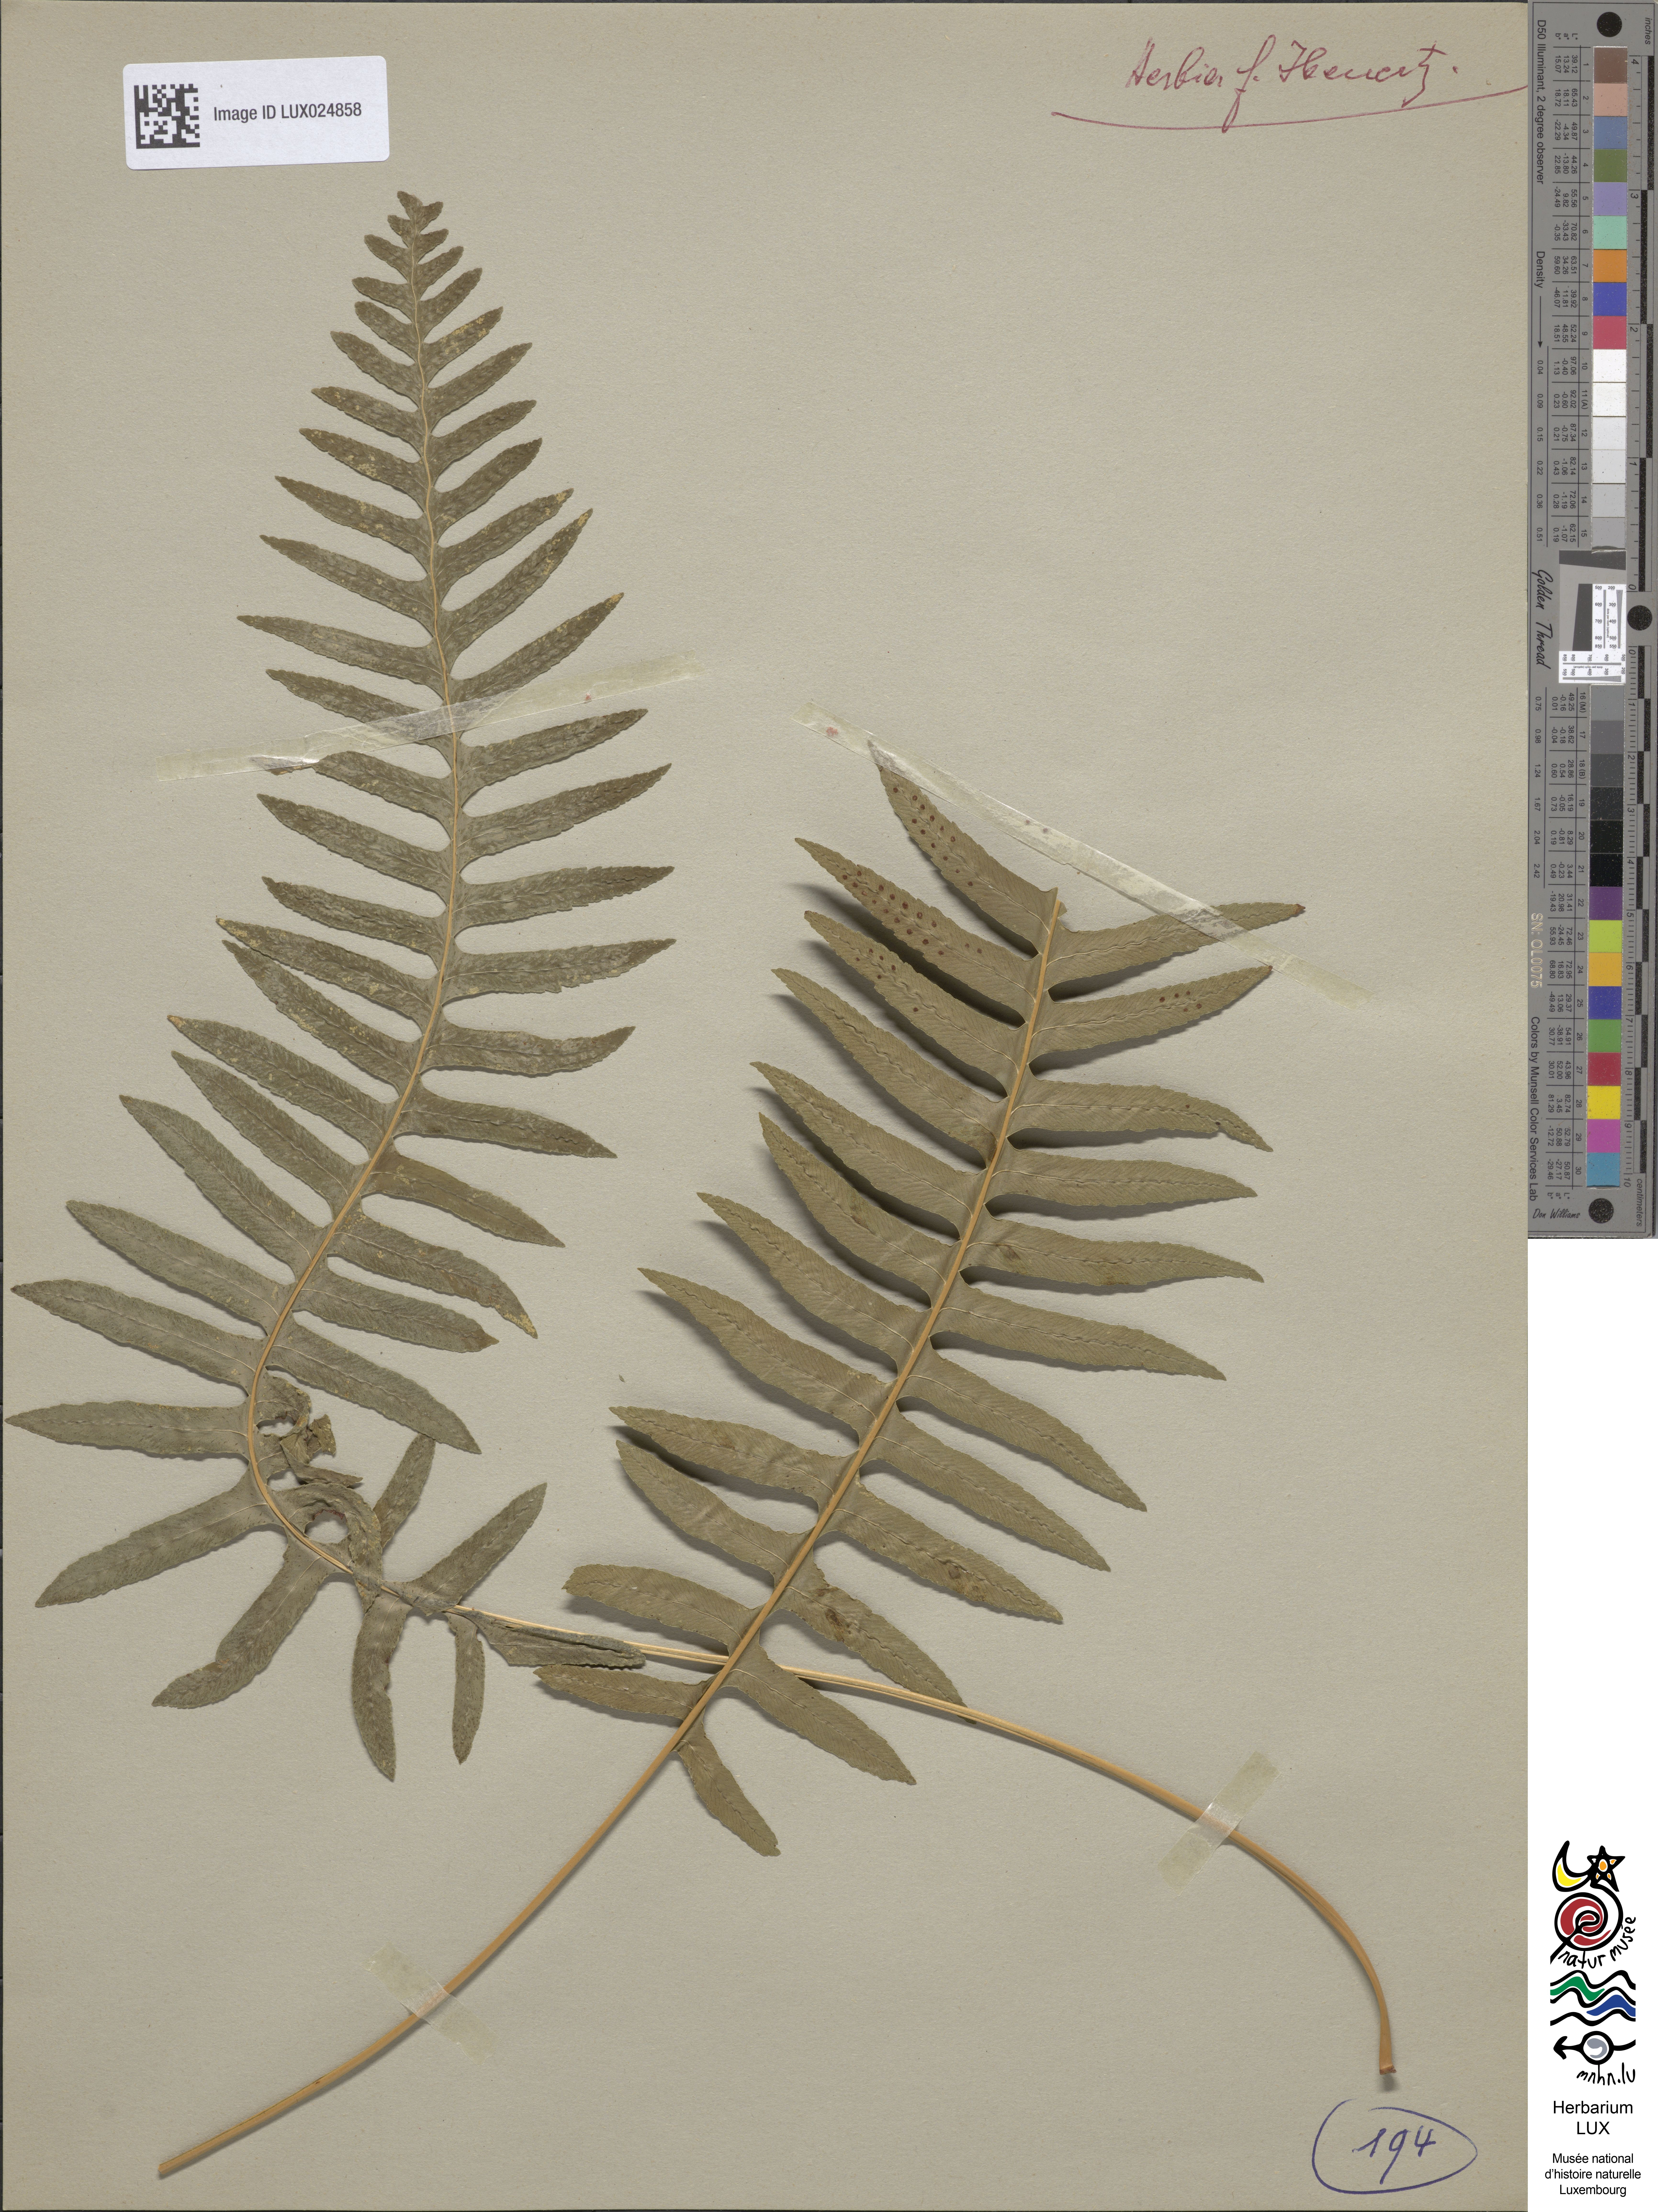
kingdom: Plantae
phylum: Tracheophyta
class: Polypodiopsida
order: Polypodiales
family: Polypodiaceae
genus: Polypodium
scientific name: Polypodium vulgare
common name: Common polypody
